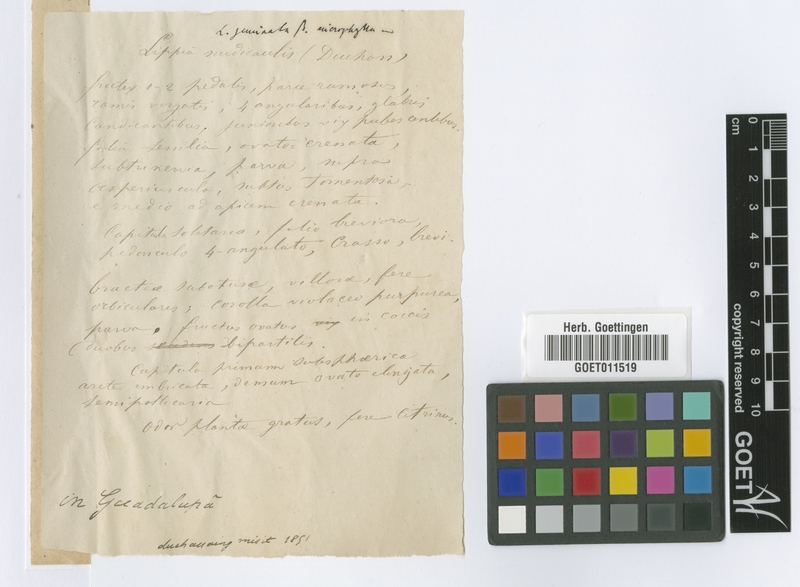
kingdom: Plantae
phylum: Tracheophyta
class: Magnoliopsida
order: Lamiales
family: Verbenaceae
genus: Lippia
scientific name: Lippia alba
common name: Bushy matgrass
